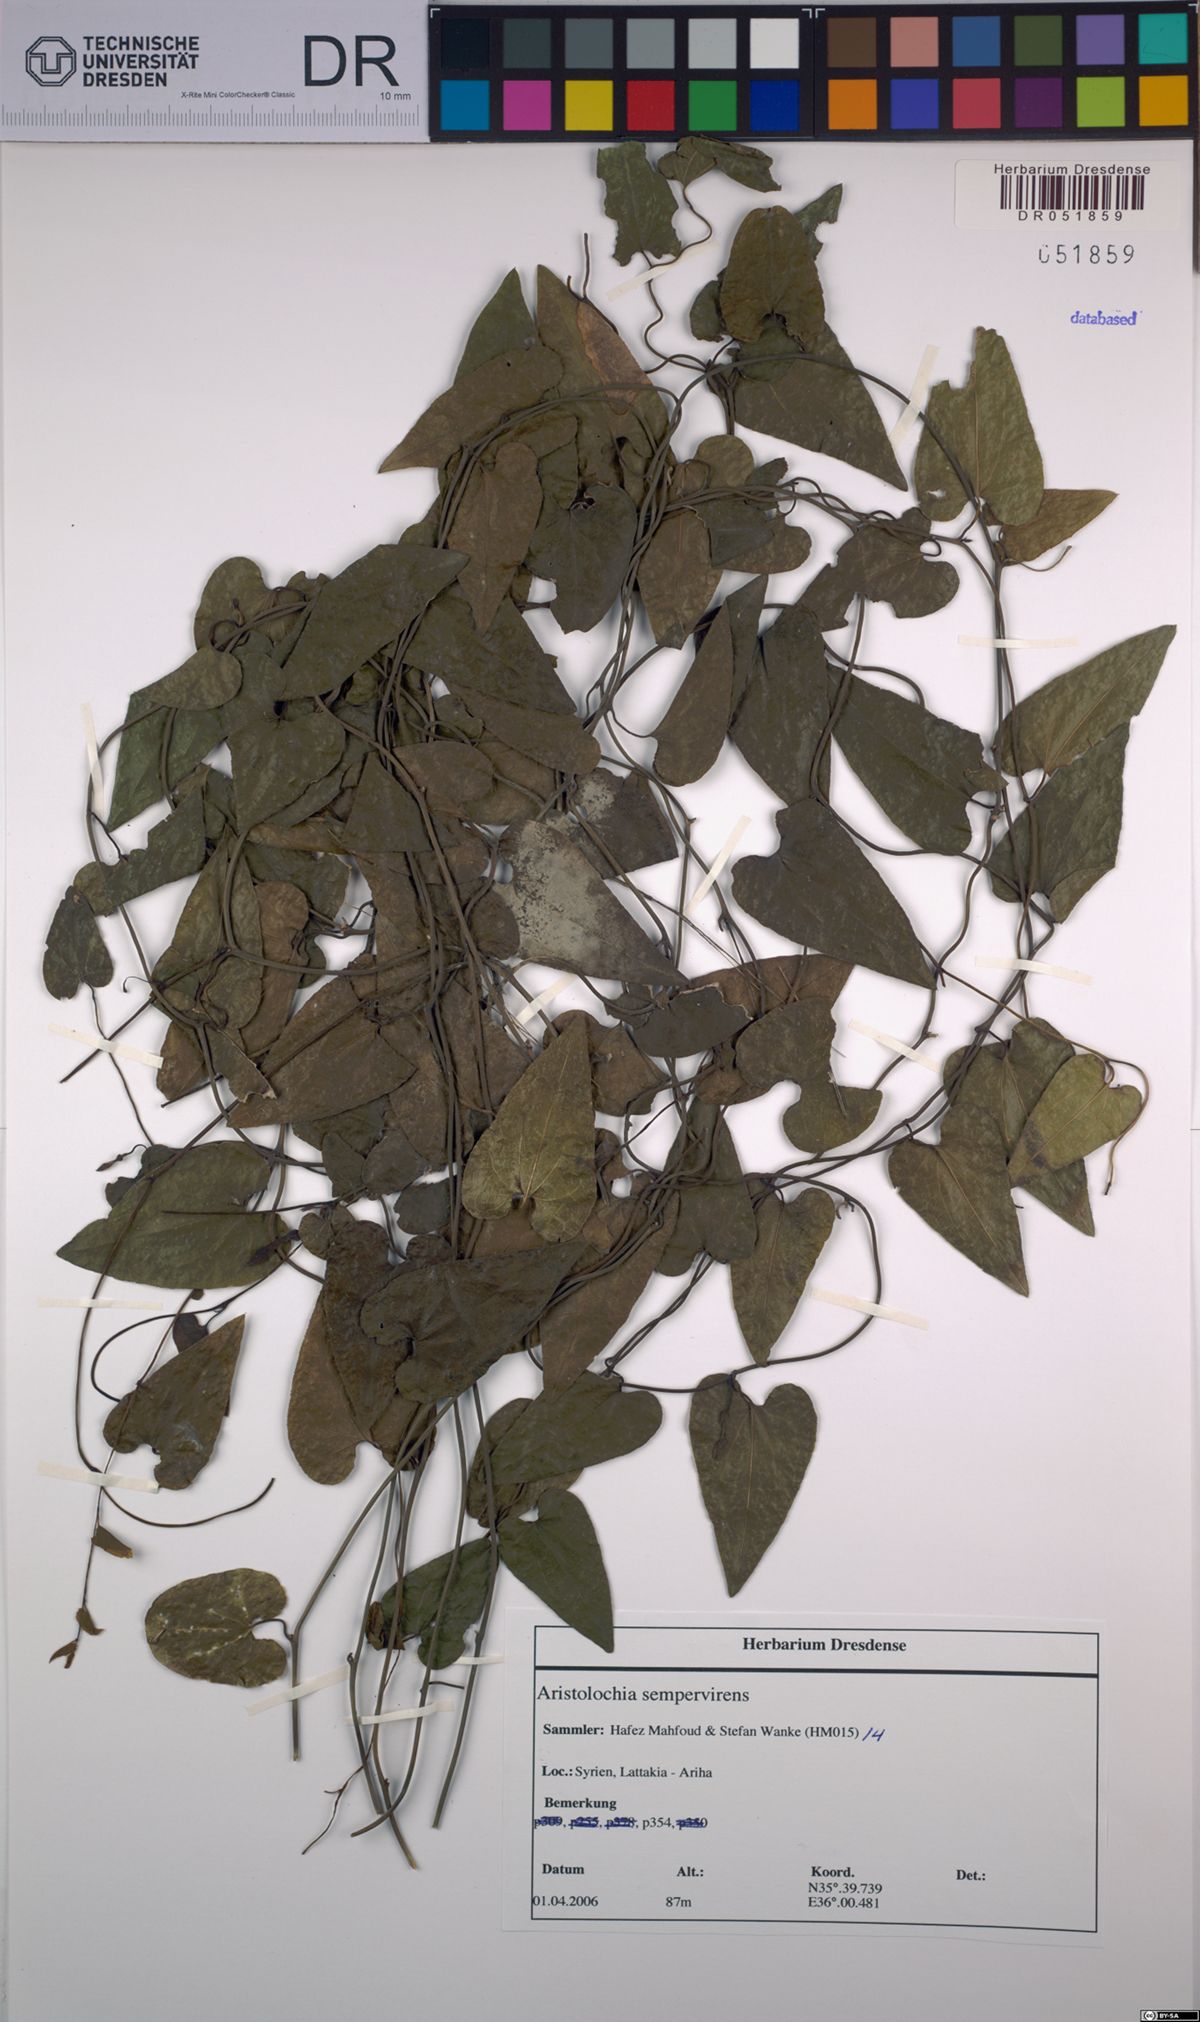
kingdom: Plantae
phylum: Tracheophyta
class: Magnoliopsida
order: Piperales
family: Aristolochiaceae
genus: Aristolochia
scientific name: Aristolochia sempervirens
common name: Long birthwort
